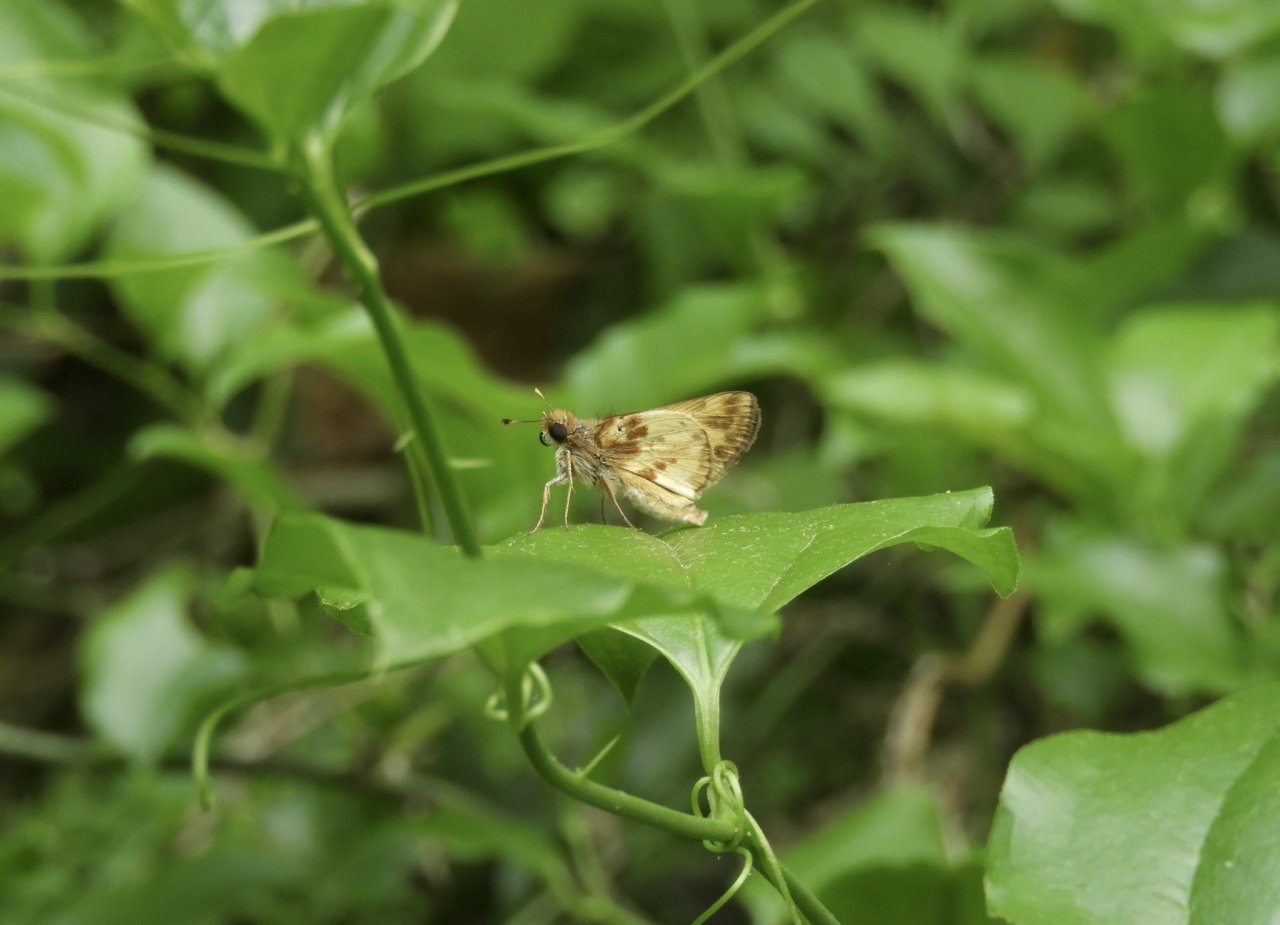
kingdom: Animalia
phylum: Arthropoda
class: Insecta
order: Lepidoptera
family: Hesperiidae
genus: Lon
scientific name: Lon zabulon
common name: Zabulon Skipper
